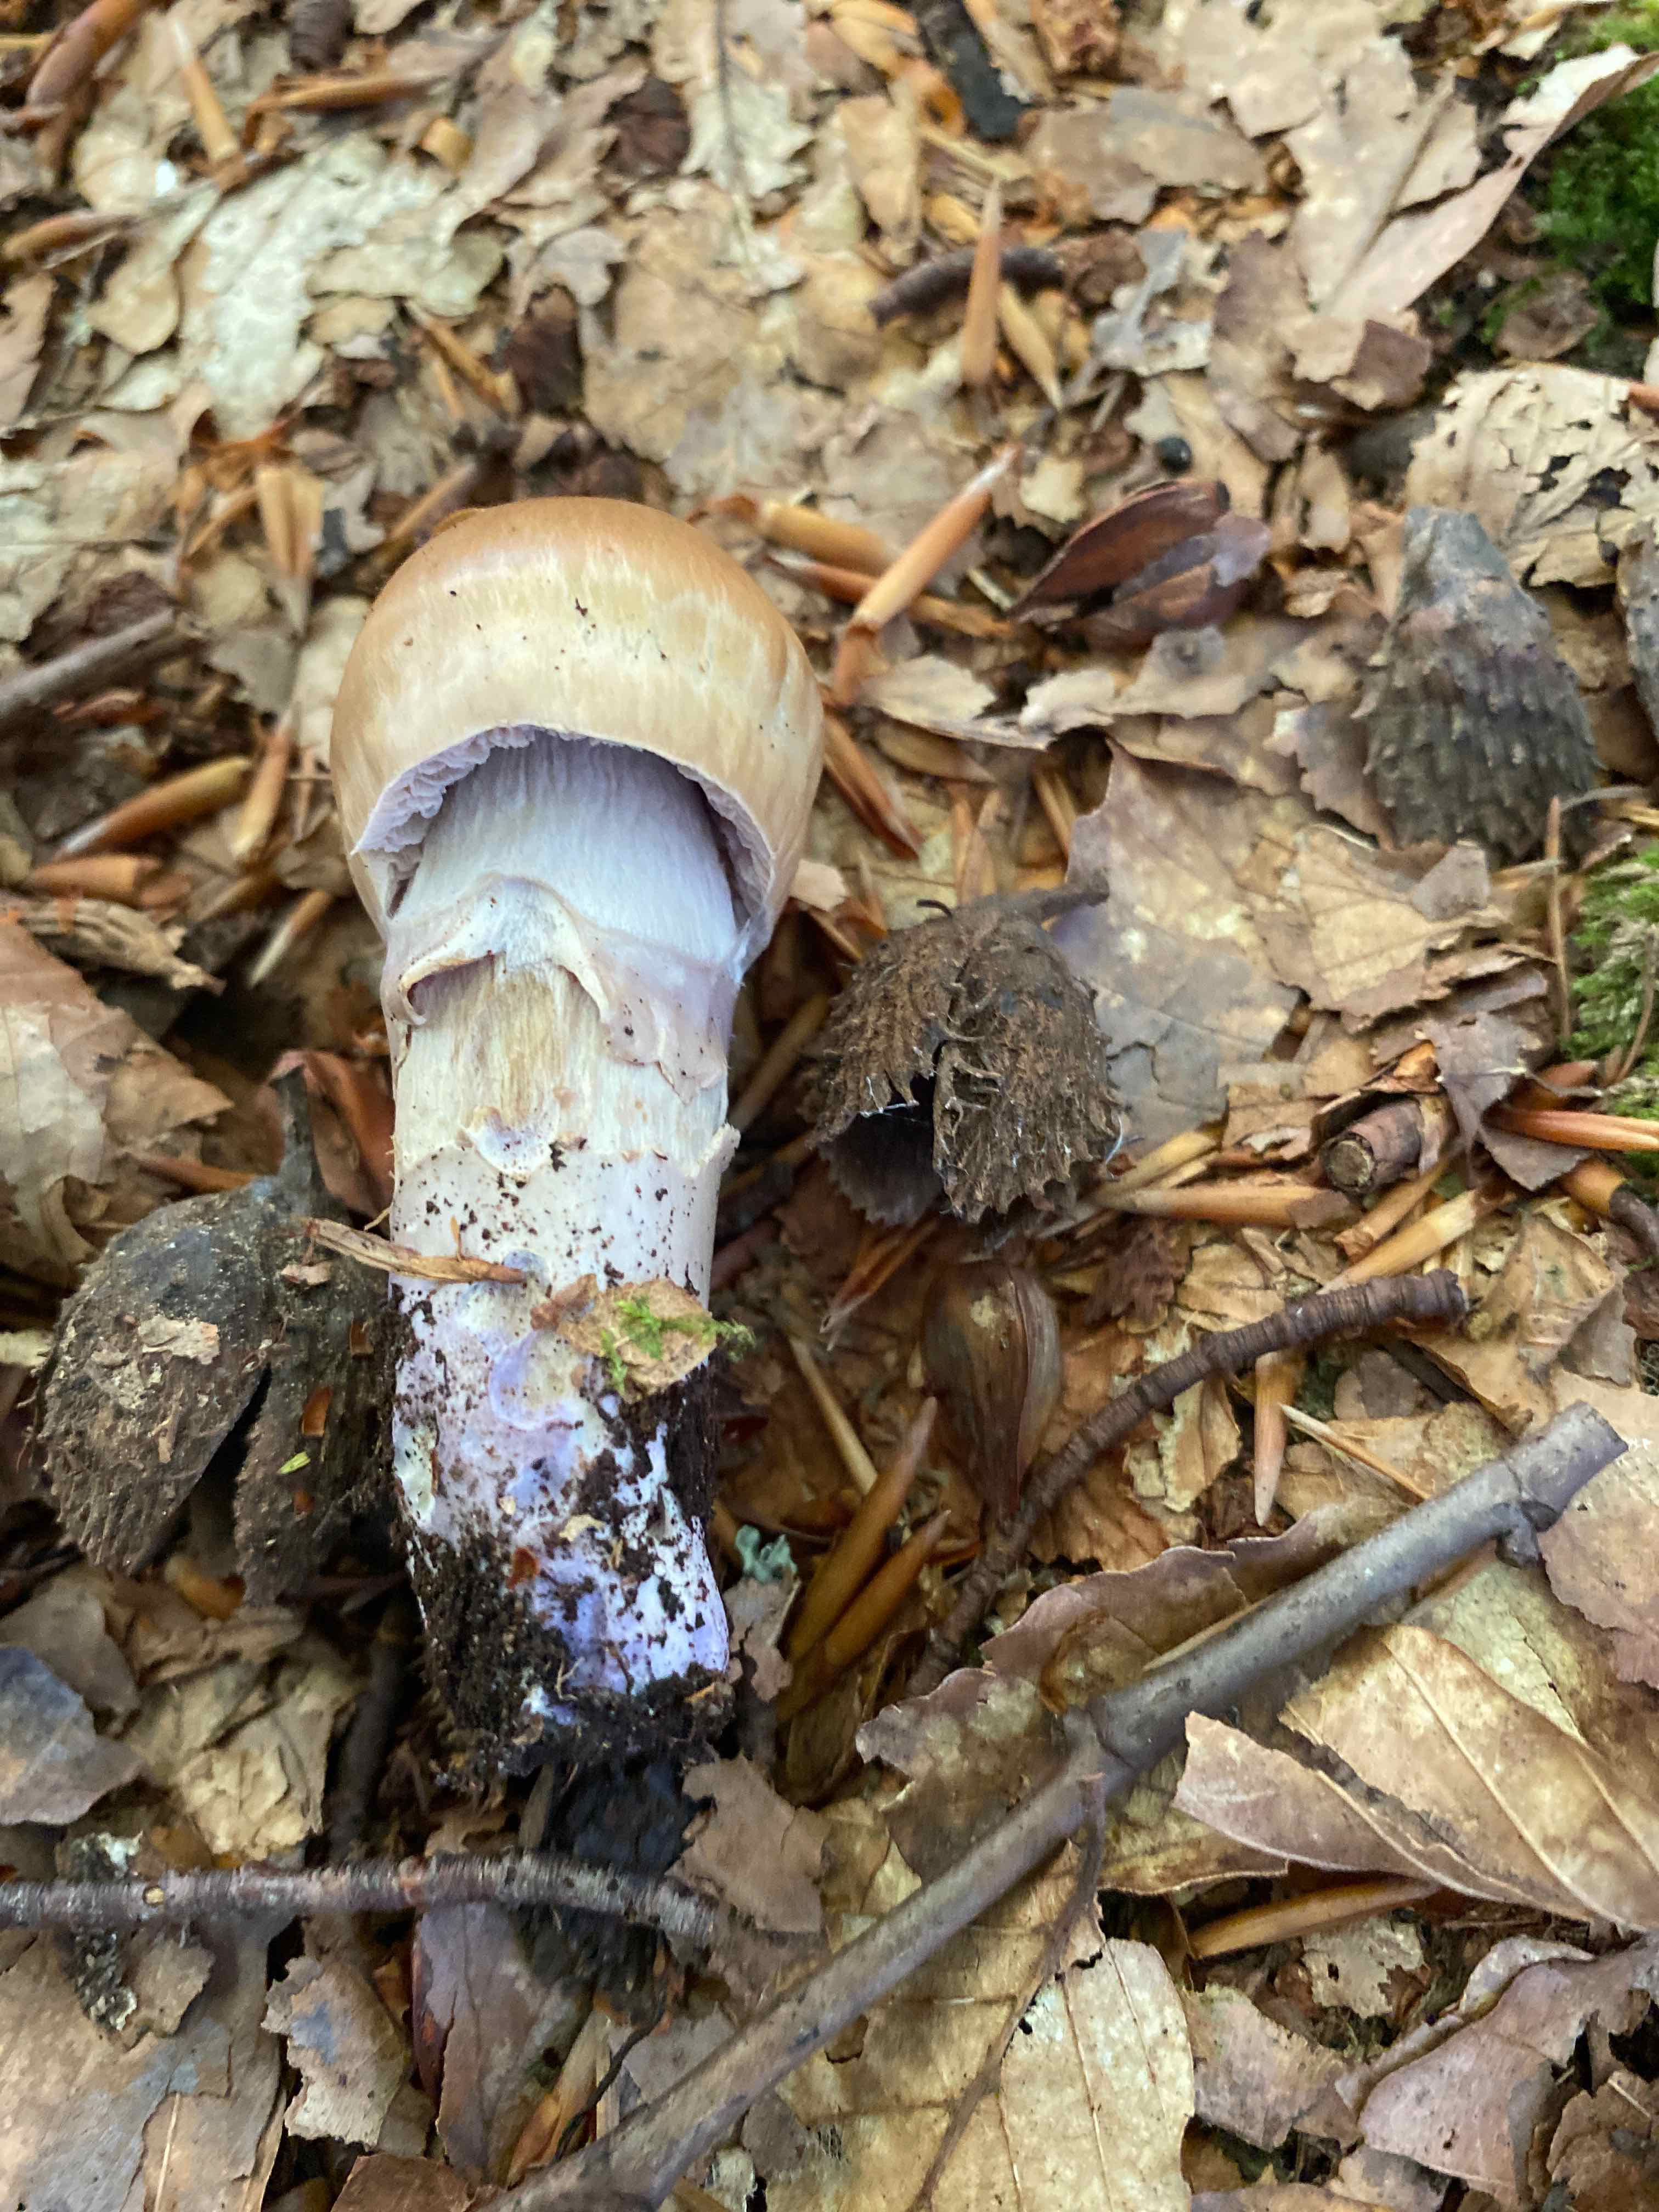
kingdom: Fungi
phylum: Basidiomycota
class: Agaricomycetes
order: Agaricales
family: Cortinariaceae
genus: Cortinarius
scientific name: Cortinarius elatior
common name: høj slørhat
